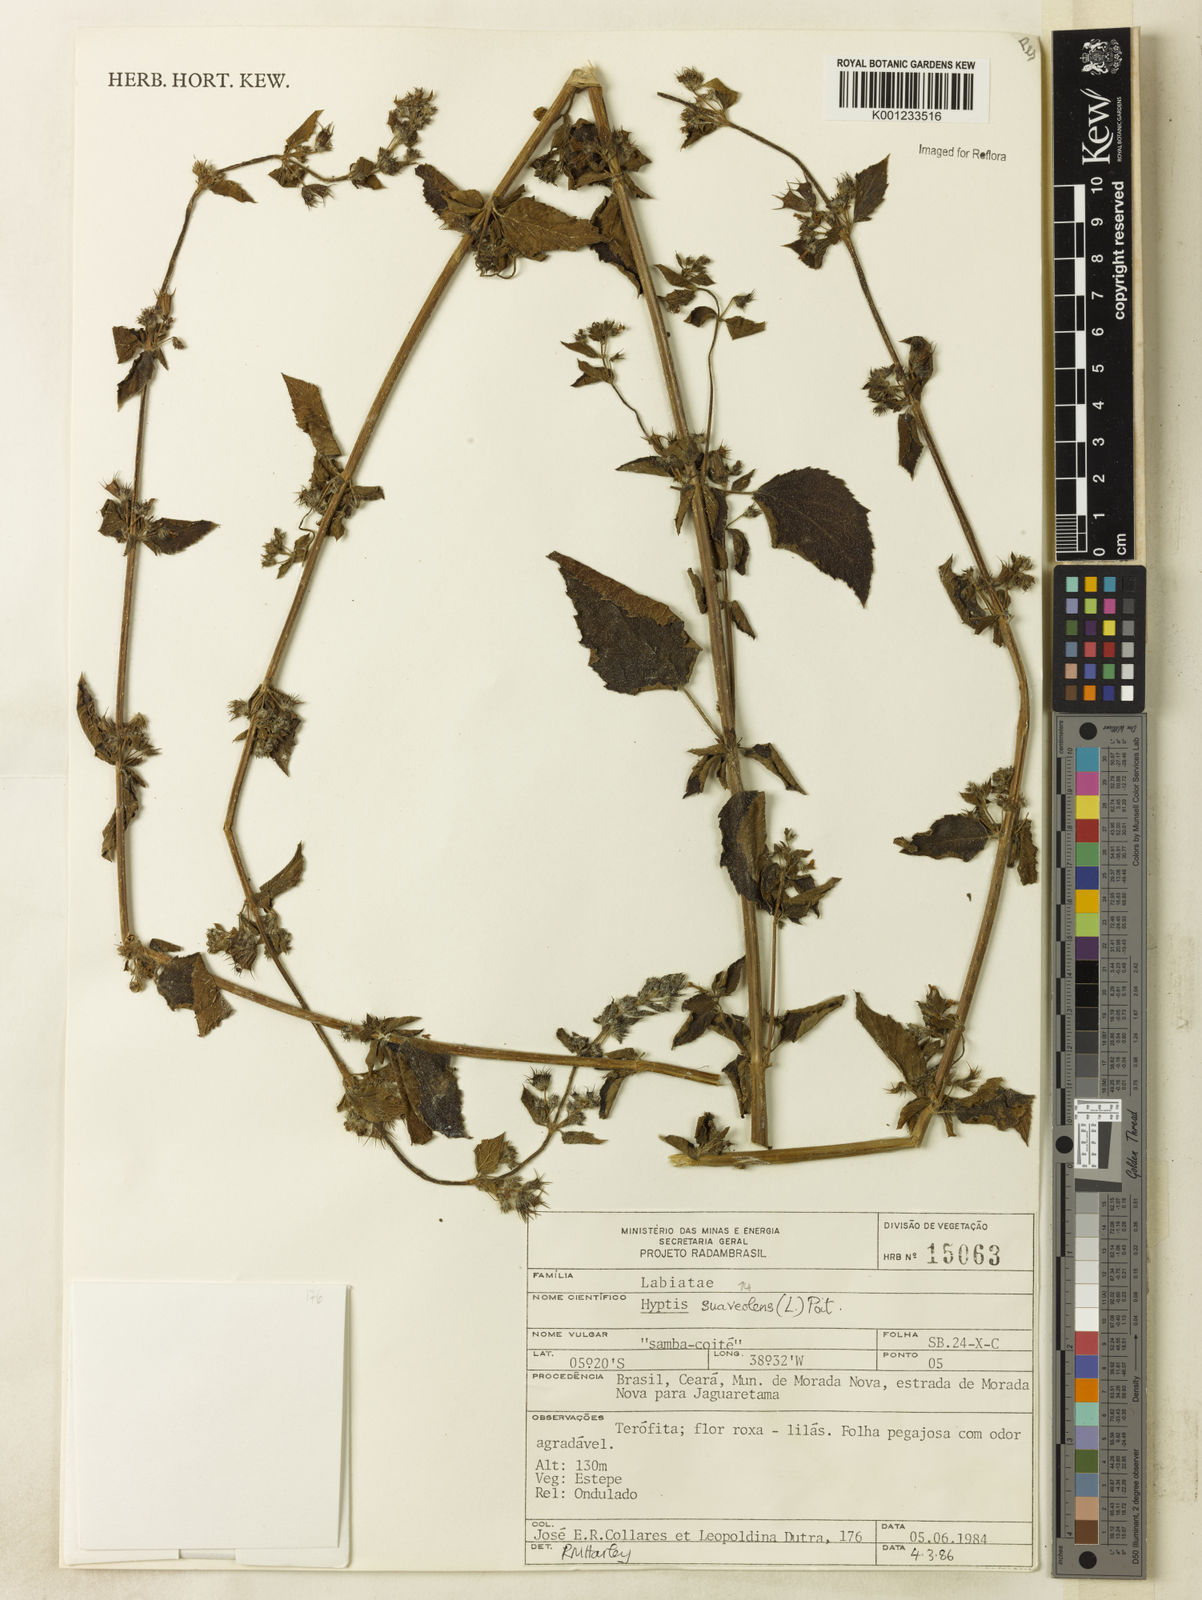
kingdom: Plantae
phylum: Tracheophyta
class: Magnoliopsida
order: Lamiales
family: Lamiaceae
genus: Mesosphaerum
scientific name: Mesosphaerum suaveolens
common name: Pignut
